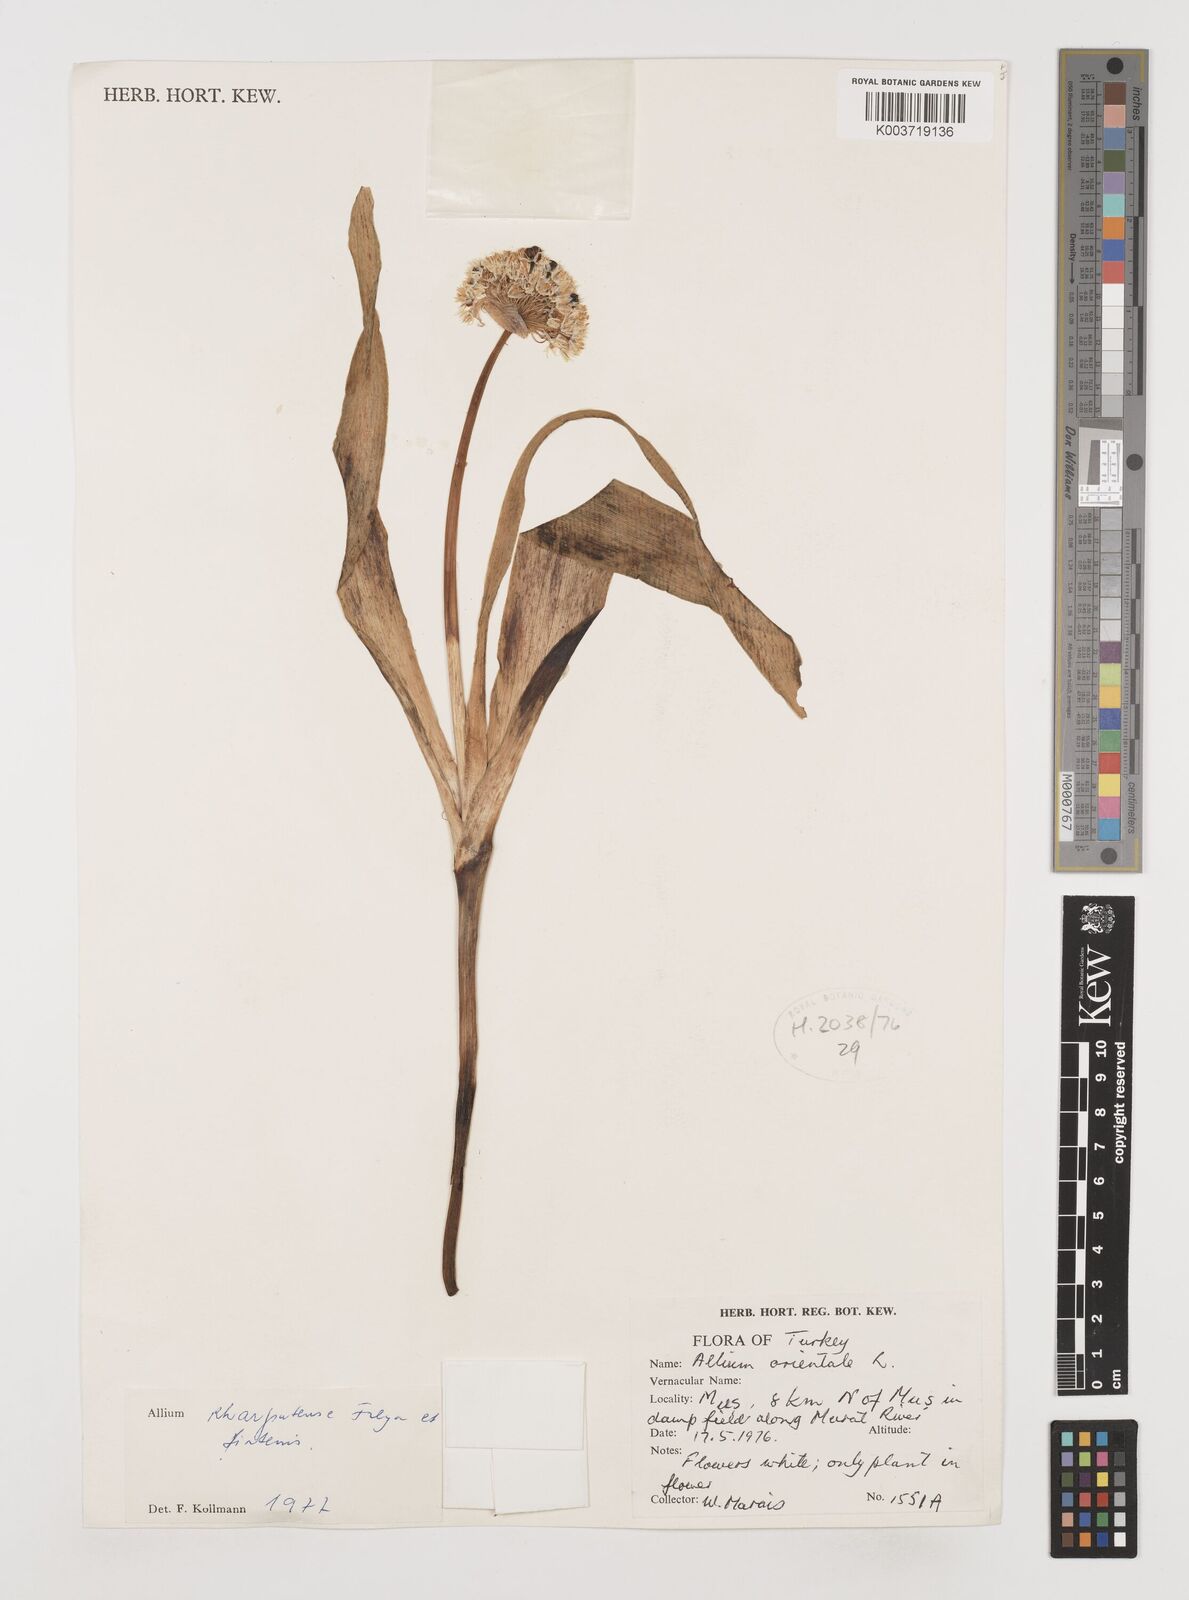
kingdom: Plantae
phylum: Tracheophyta
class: Liliopsida
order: Asparagales
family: Amaryllidaceae
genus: Allium
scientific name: Allium kharputense
